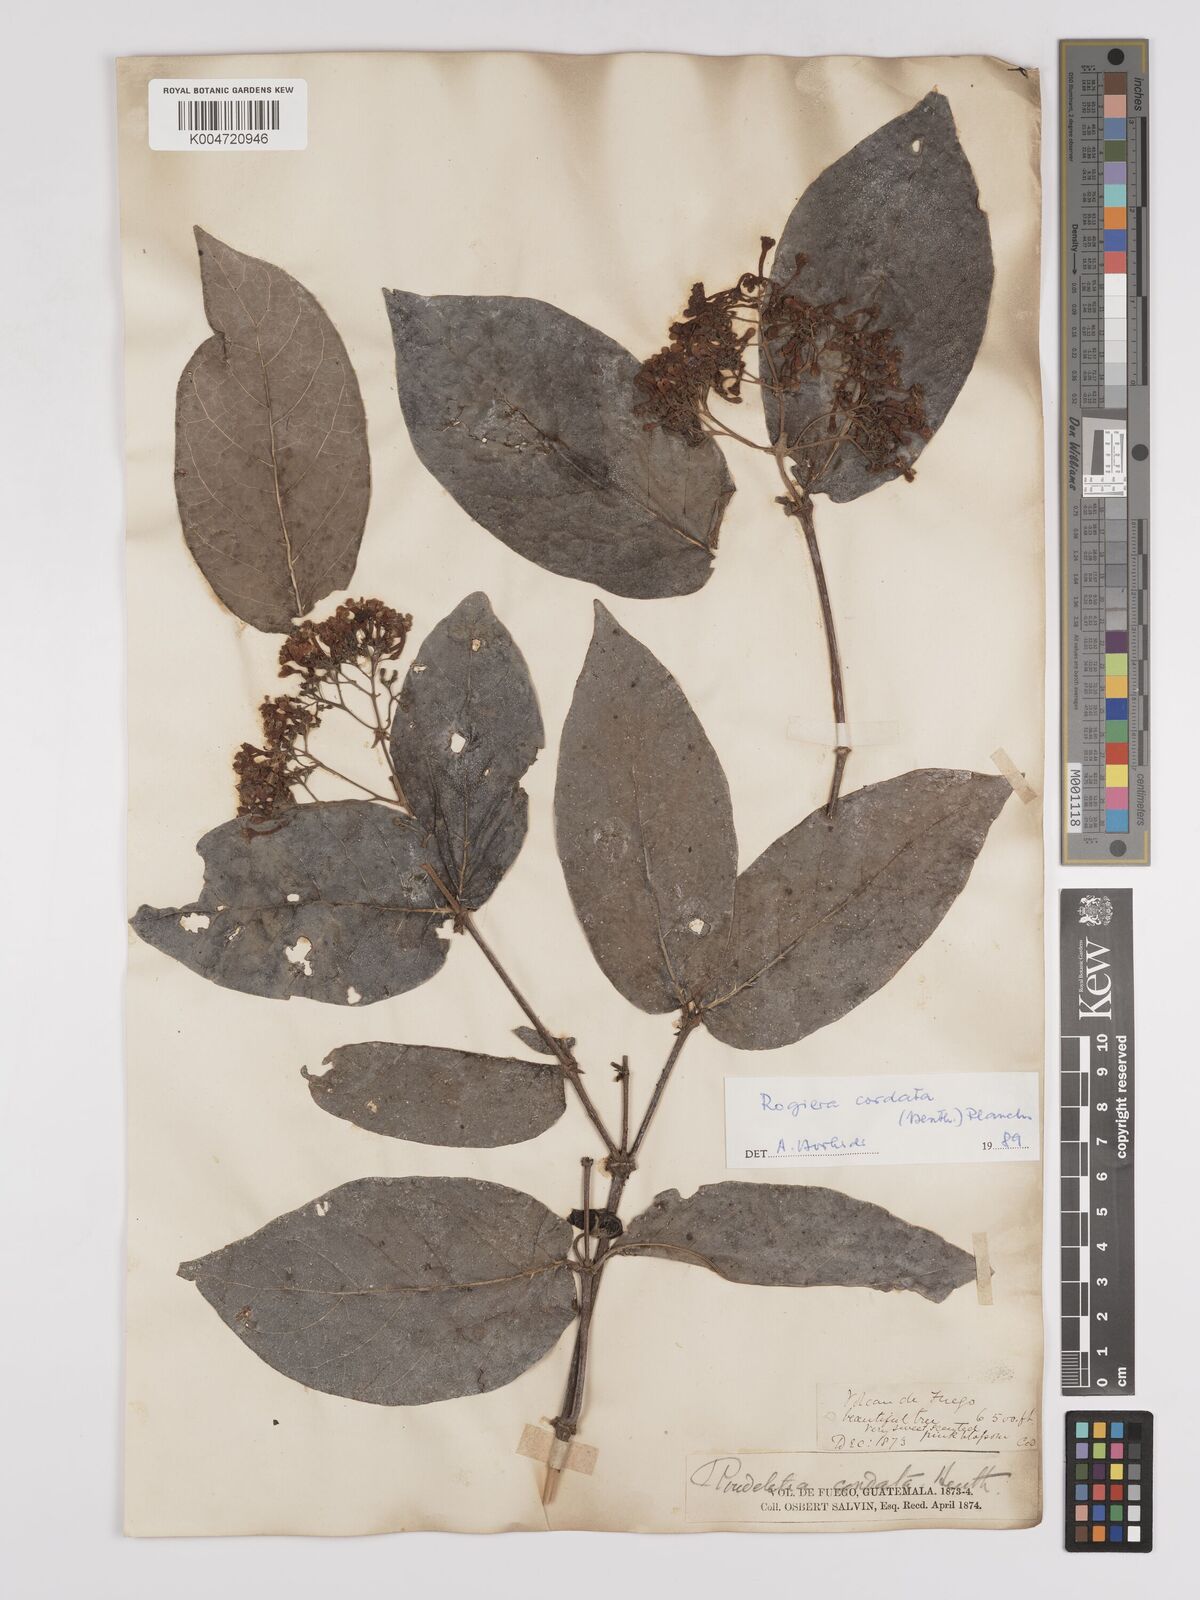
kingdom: Plantae
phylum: Tracheophyta
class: Magnoliopsida
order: Gentianales
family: Rubiaceae
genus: Rogiera
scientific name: Rogiera cordata
